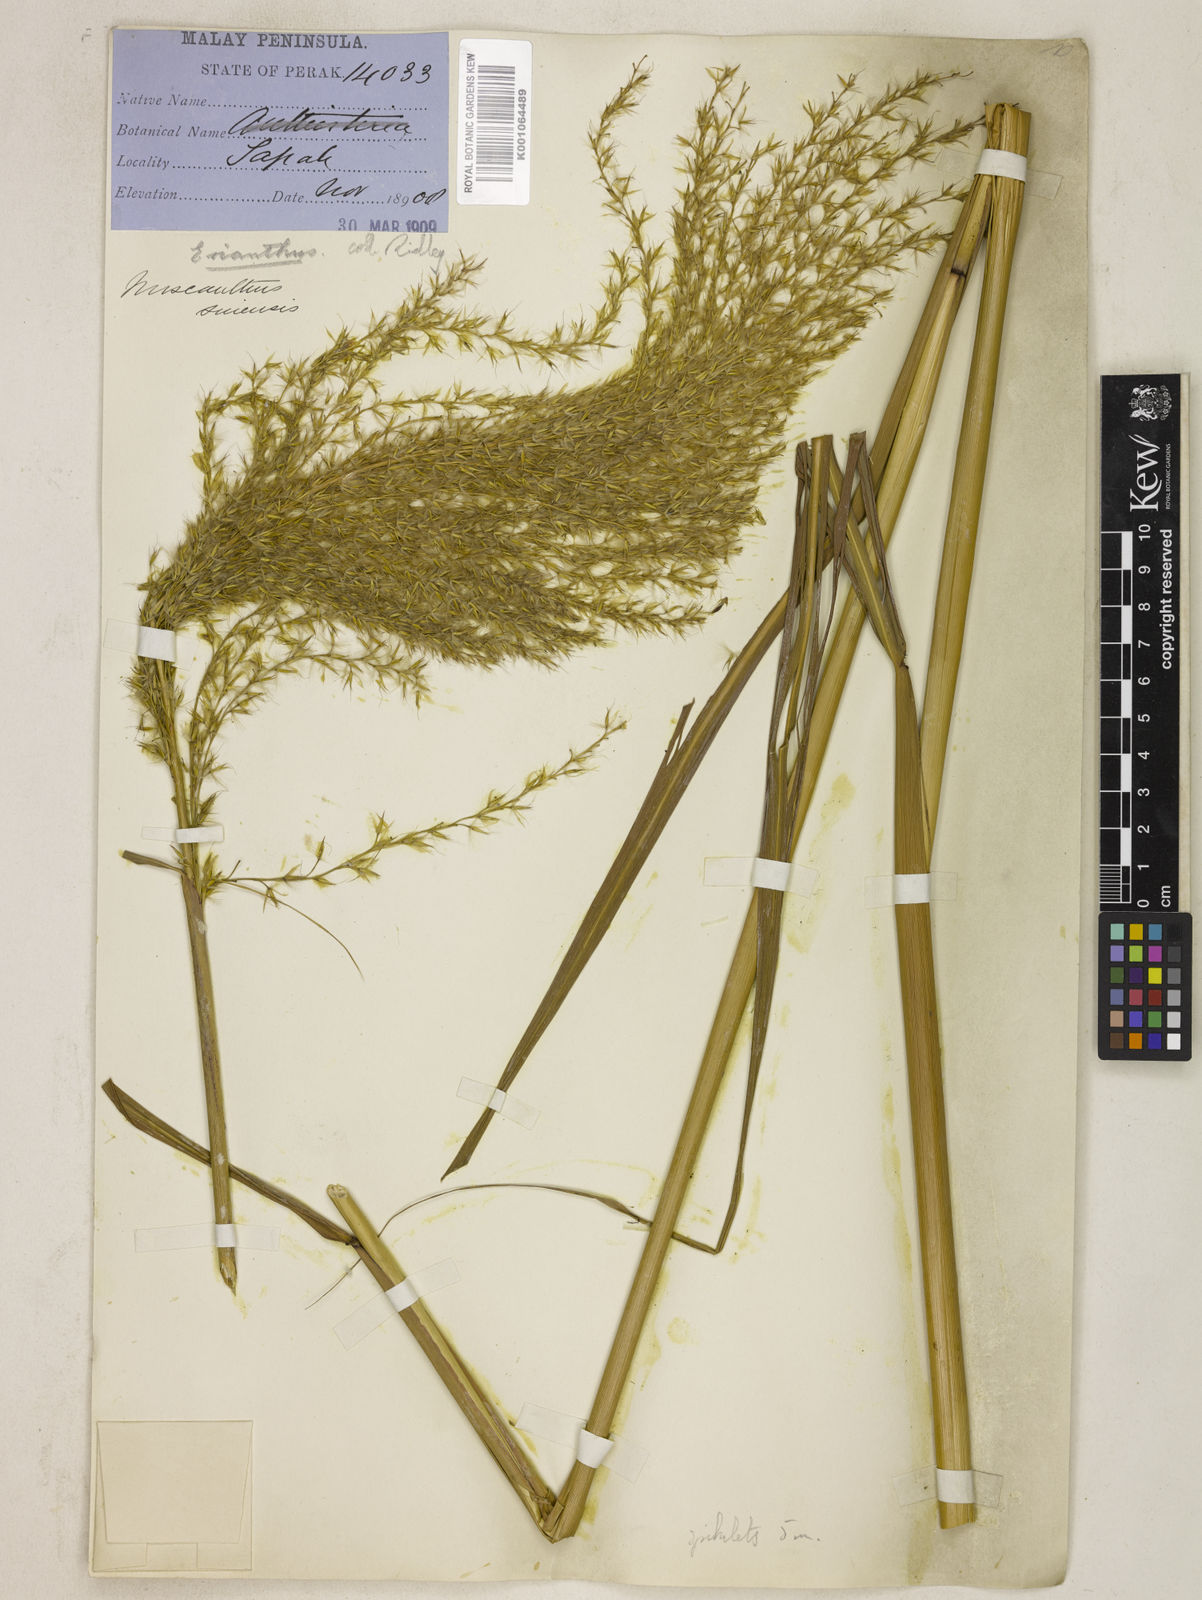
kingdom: Plantae
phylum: Tracheophyta
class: Liliopsida
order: Poales
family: Poaceae
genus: Miscanthus
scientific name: Miscanthus sinensis
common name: Chinese silvergrass
